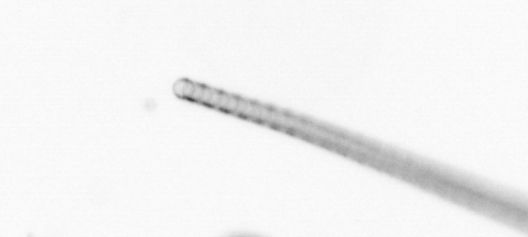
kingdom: Chromista
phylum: Ochrophyta
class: Bacillariophyceae
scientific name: Bacillariophyceae
